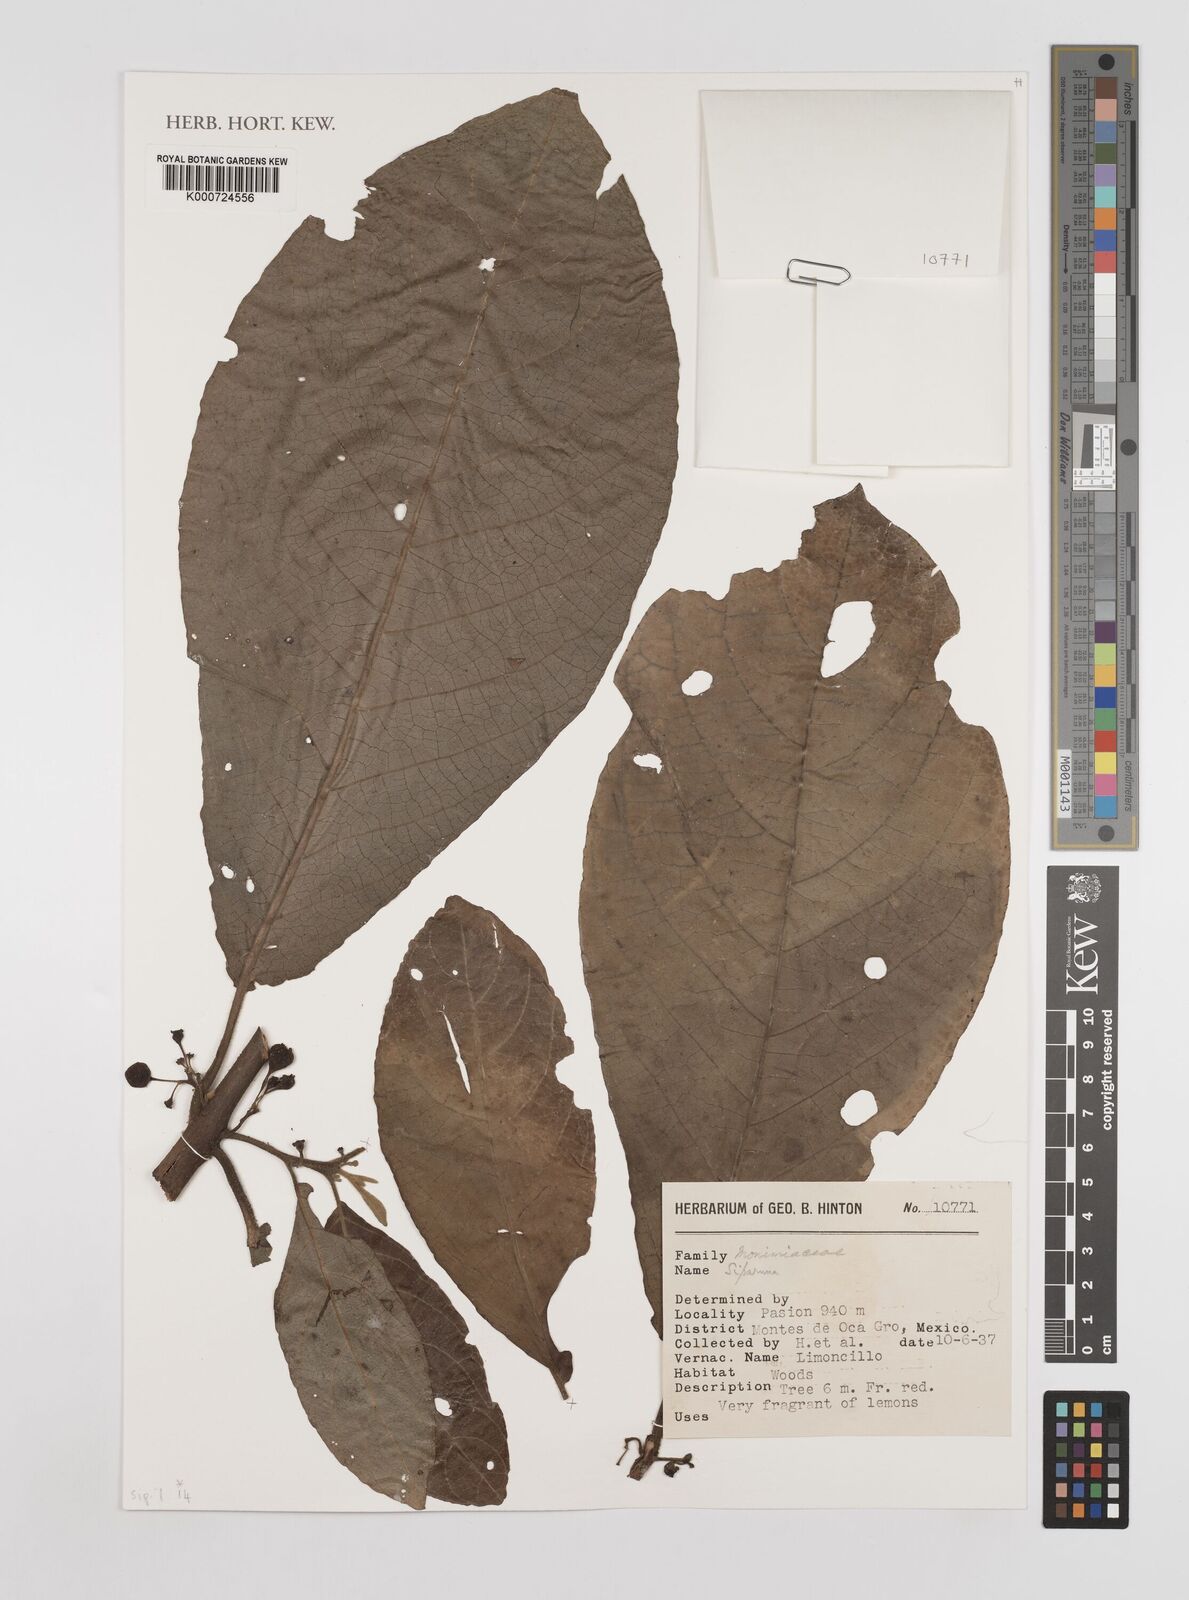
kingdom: Plantae
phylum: Tracheophyta
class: Magnoliopsida
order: Laurales
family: Siparunaceae
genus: Siparuna
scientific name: Siparuna thecaphora
